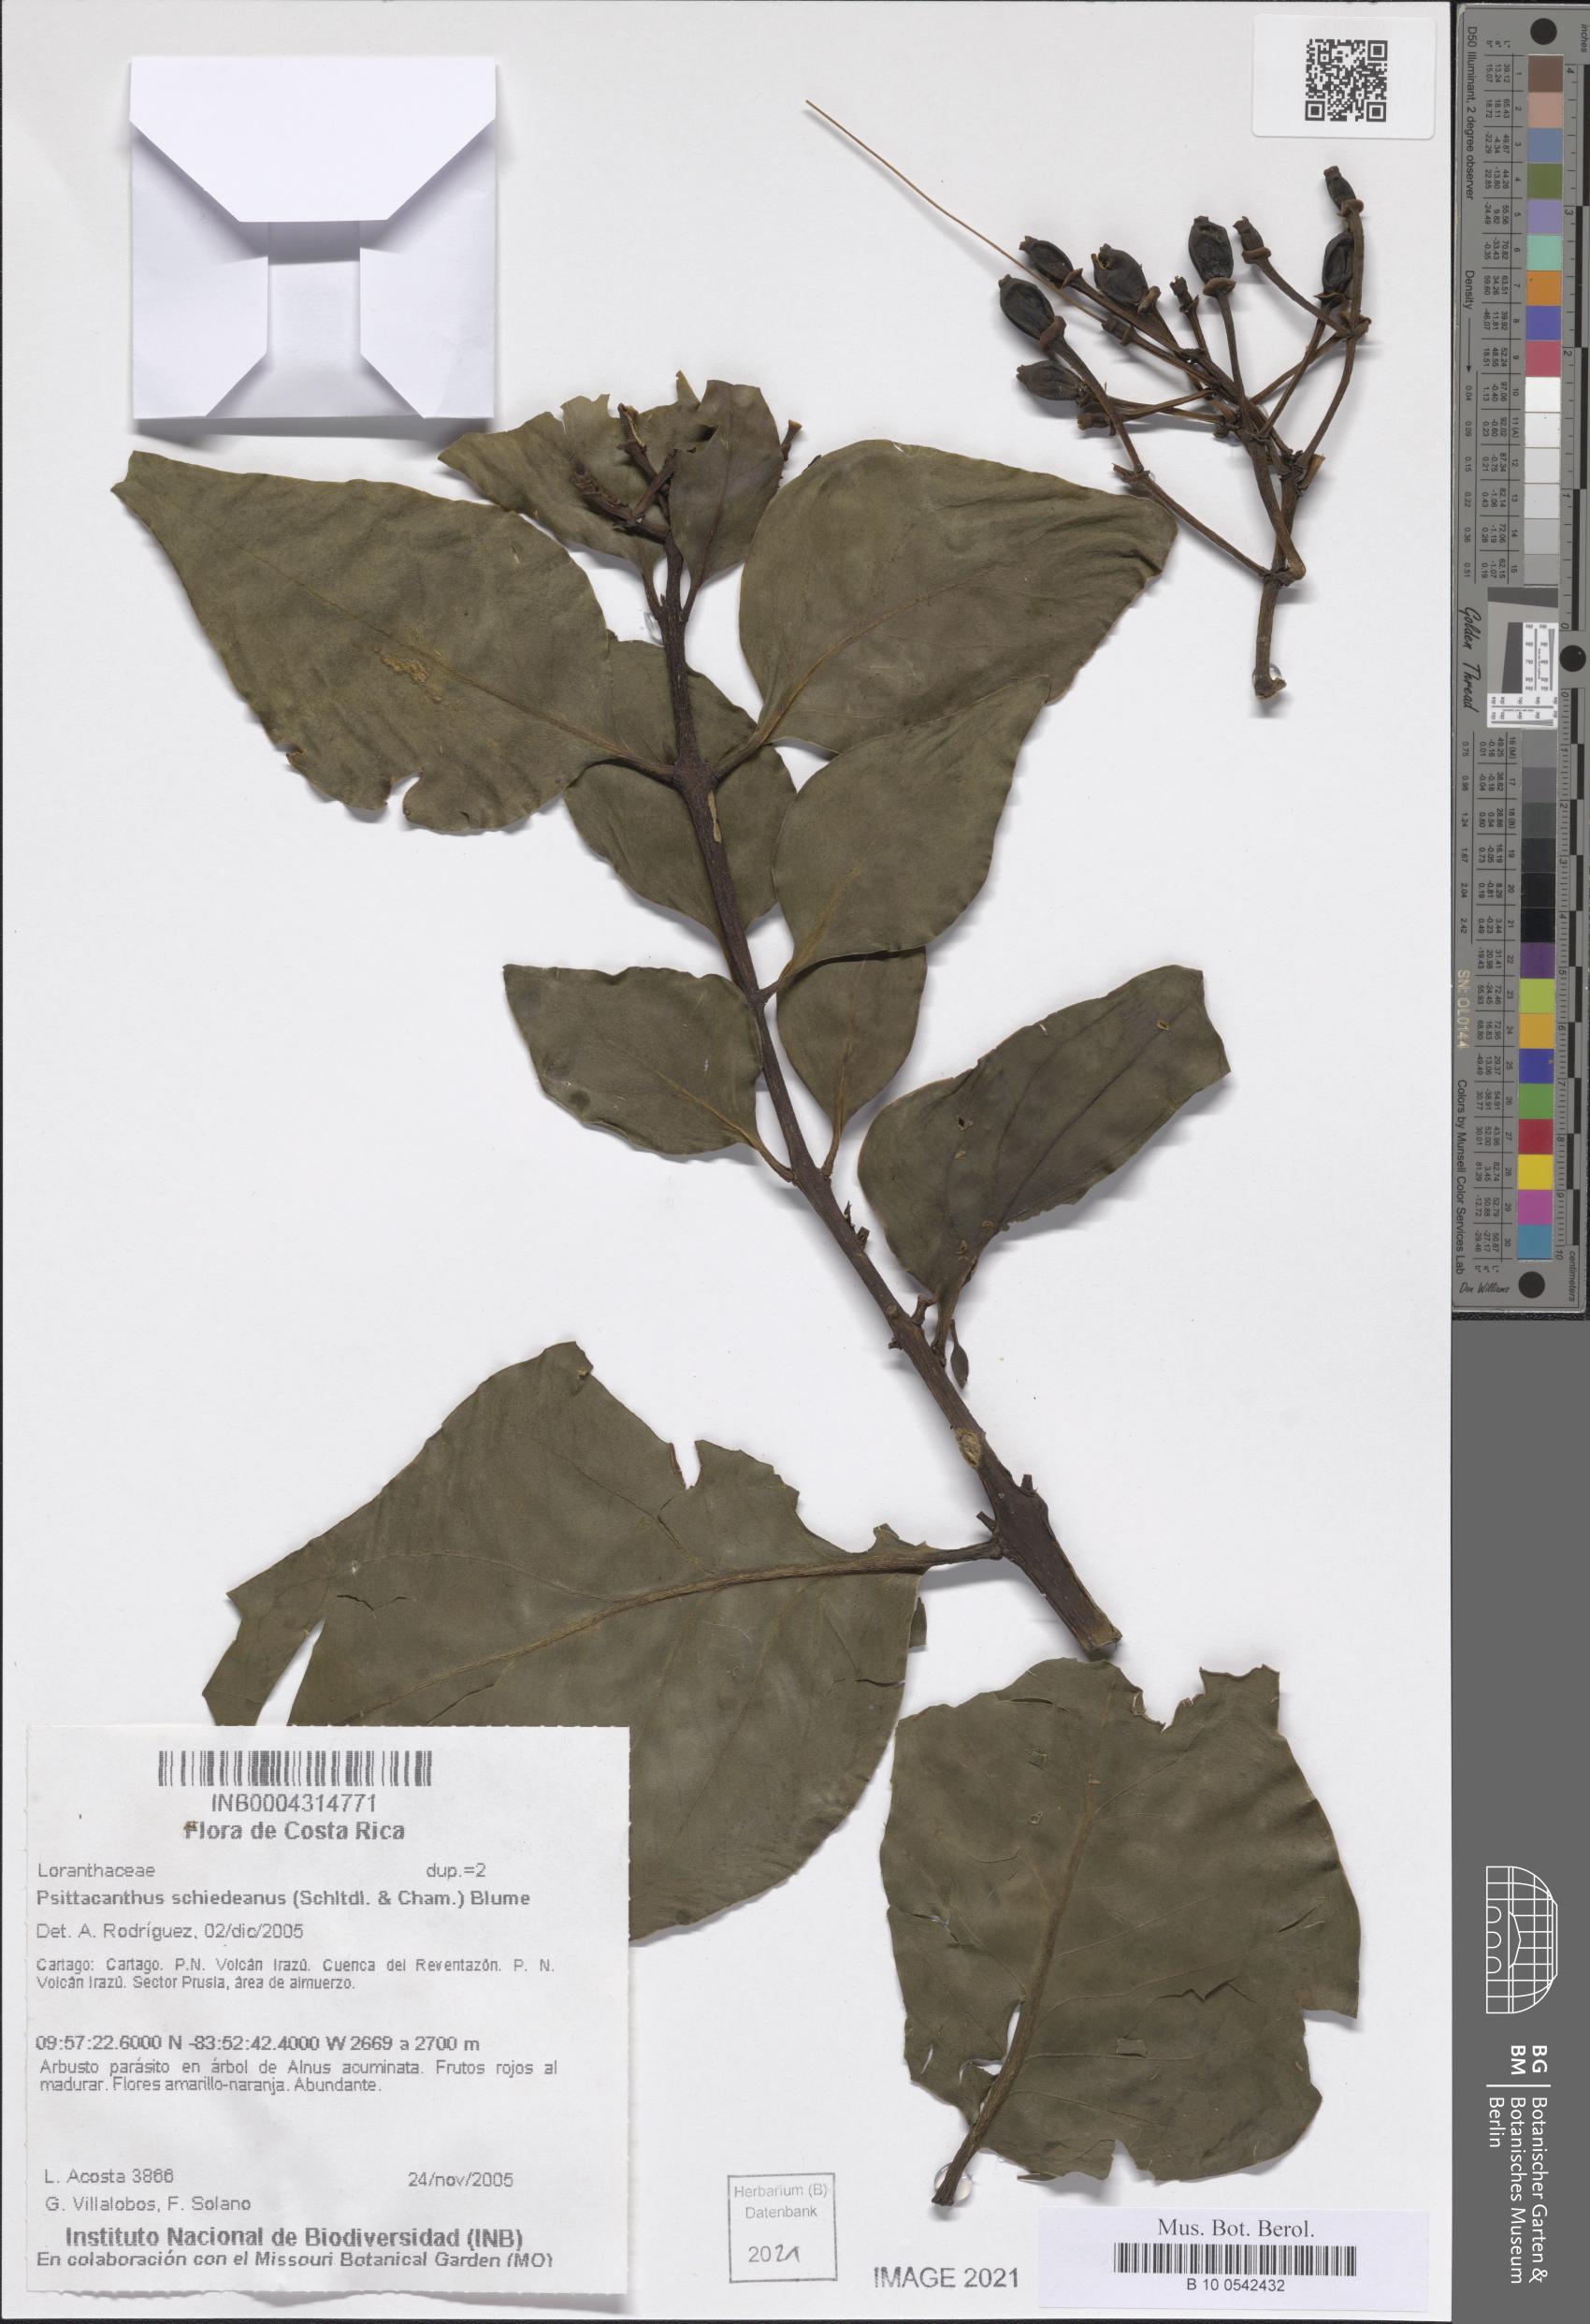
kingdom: Plantae
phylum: Tracheophyta
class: Magnoliopsida
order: Santalales
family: Loranthaceae
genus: Psittacanthus
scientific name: Psittacanthus schiedeanus
